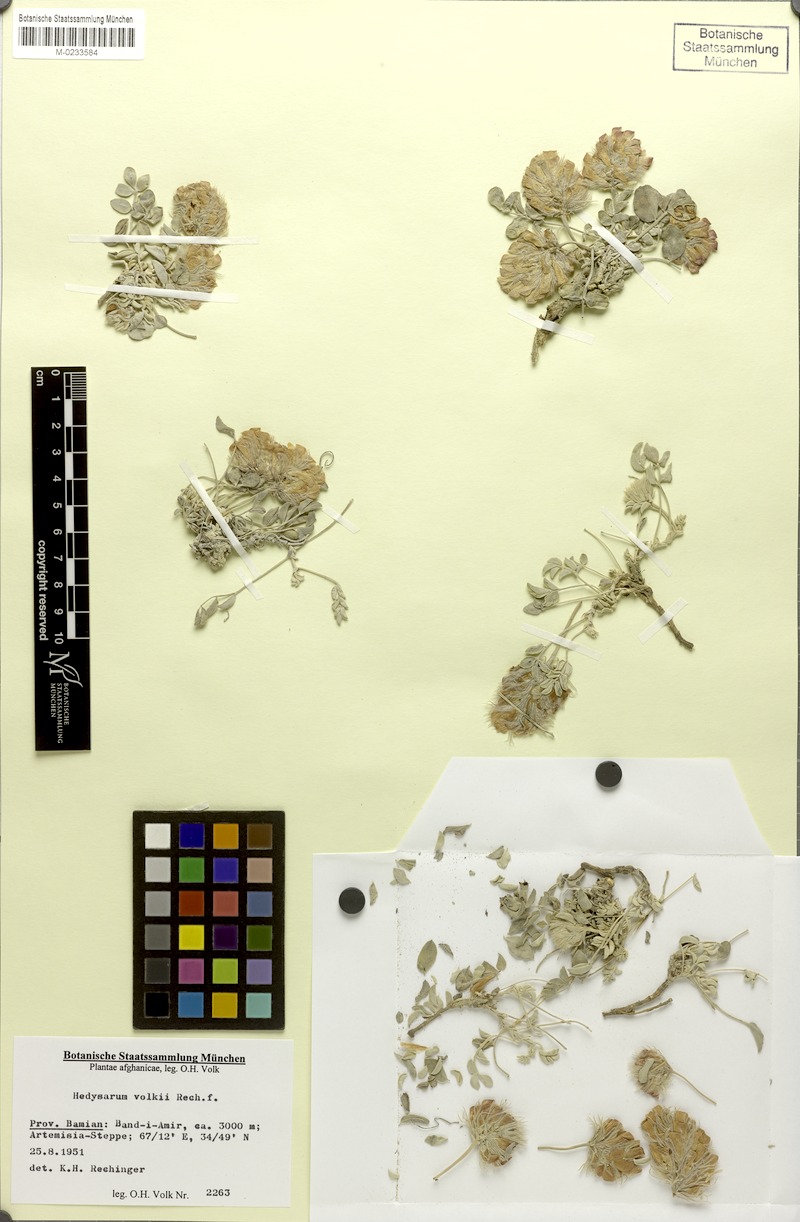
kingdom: Plantae
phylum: Tracheophyta
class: Magnoliopsida
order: Fabales
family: Fabaceae
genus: Hedysarum
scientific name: Hedysarum volkii
